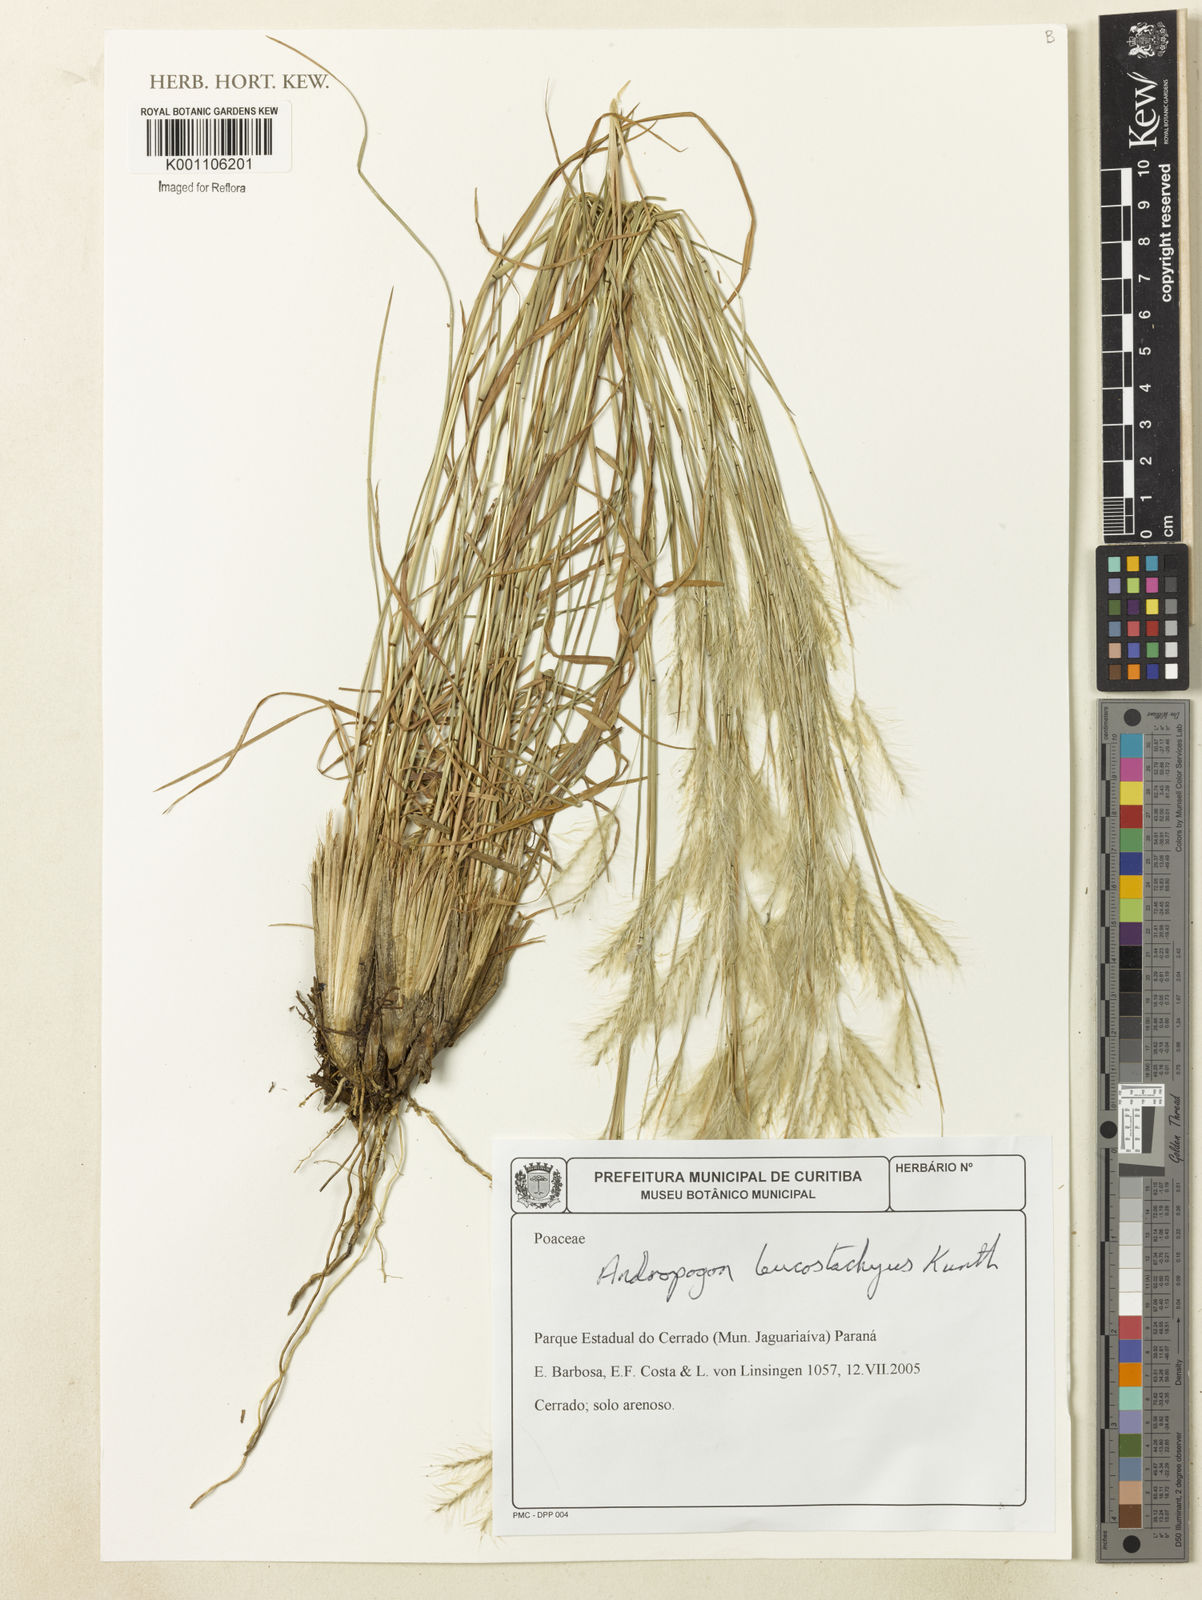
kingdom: Plantae
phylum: Tracheophyta
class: Liliopsida
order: Poales
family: Poaceae
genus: Andropogon
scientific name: Andropogon leucostachyus
